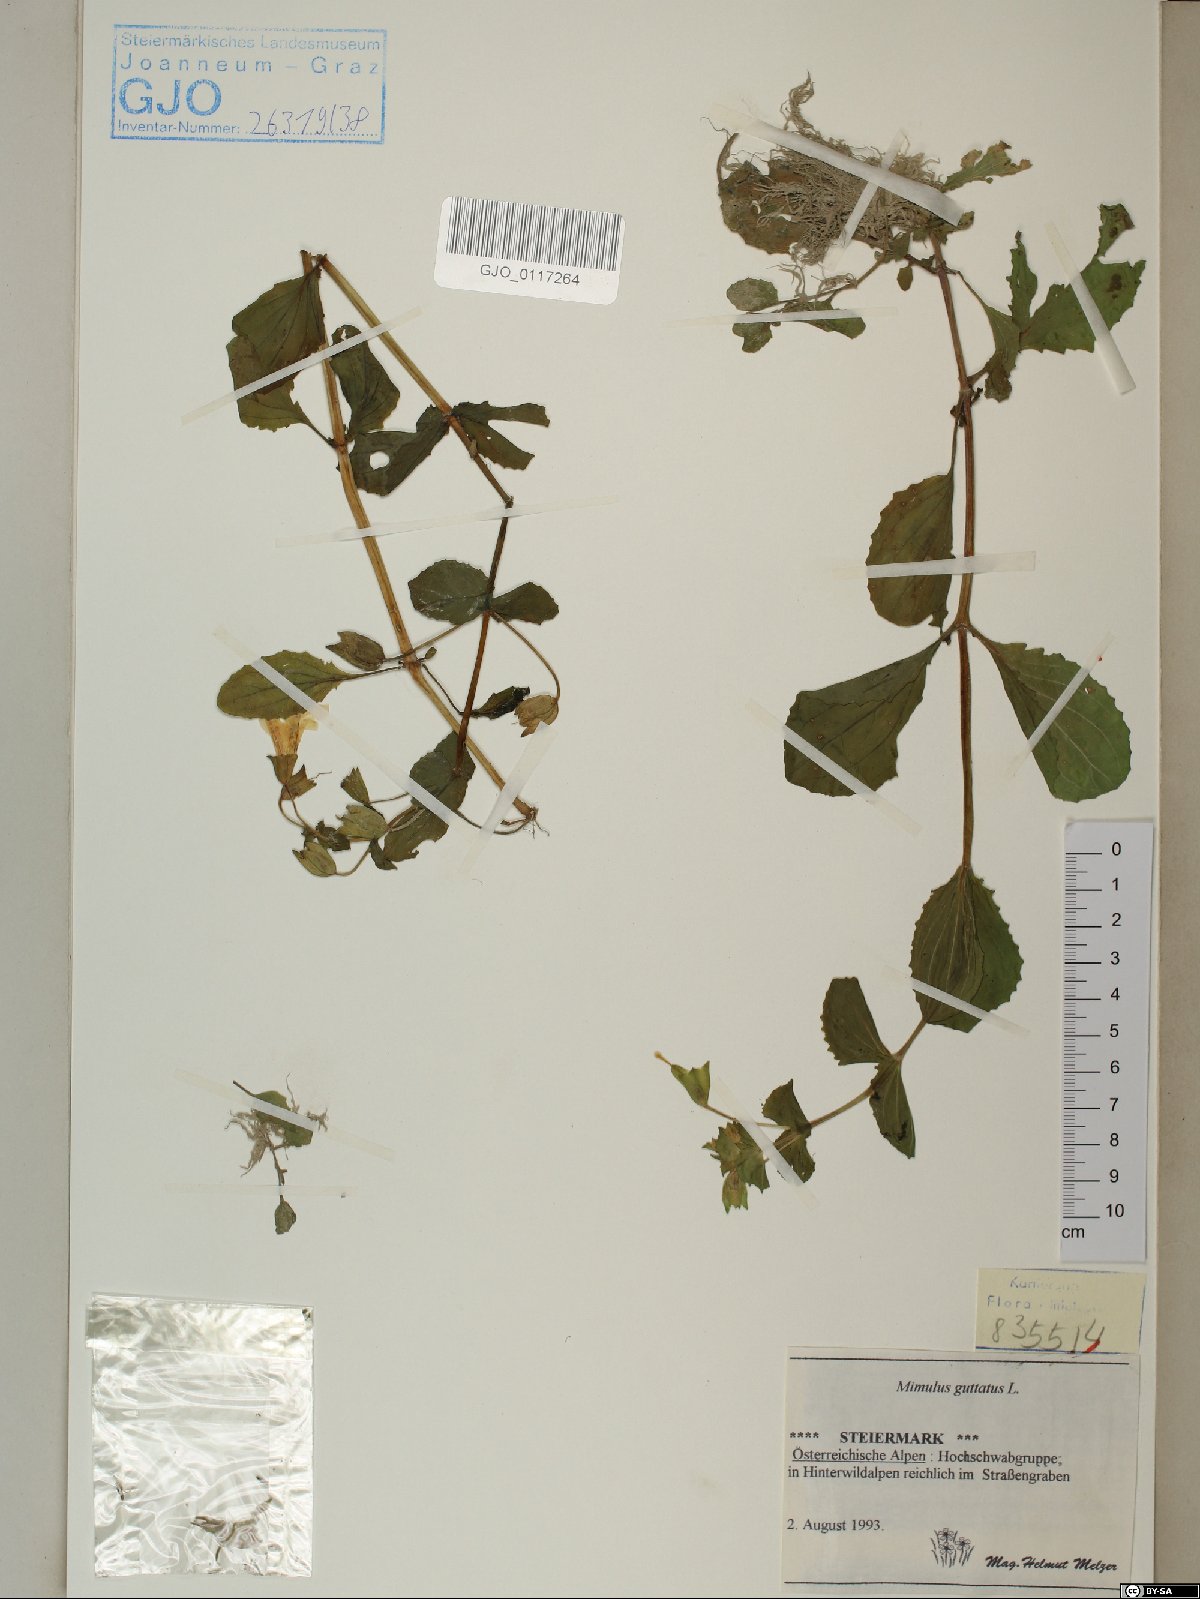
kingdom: Plantae
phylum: Tracheophyta
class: Magnoliopsida
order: Lamiales
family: Phrymaceae
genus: Erythranthe
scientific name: Erythranthe guttata
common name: Monkeyflower
